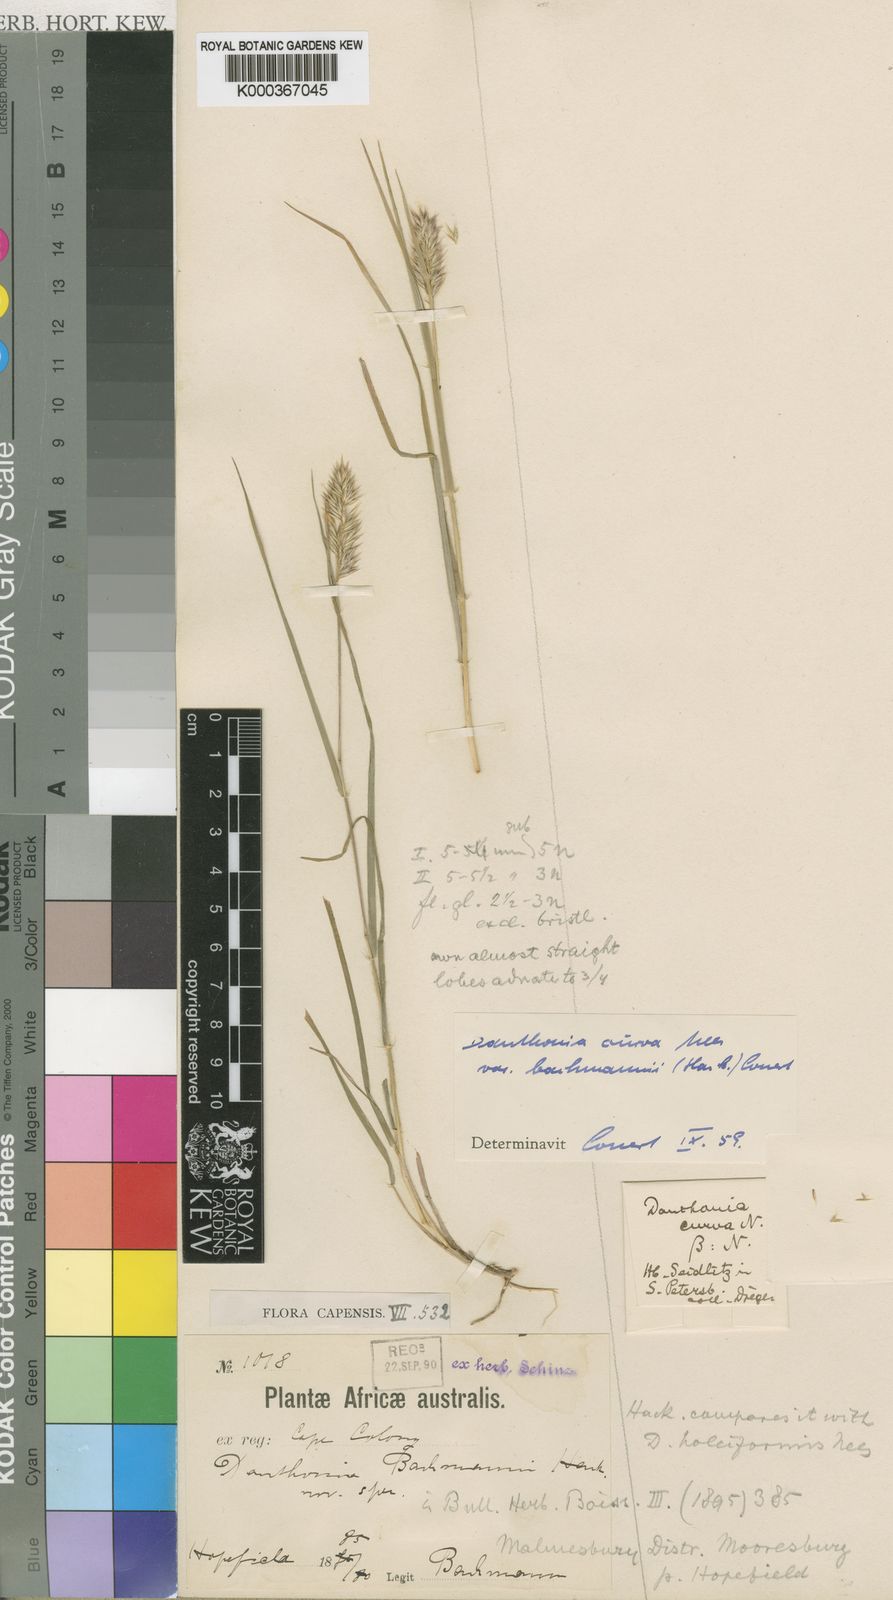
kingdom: Plantae
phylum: Tracheophyta
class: Liliopsida
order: Poales
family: Poaceae
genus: Rytidosperma
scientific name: Rytidosperma
